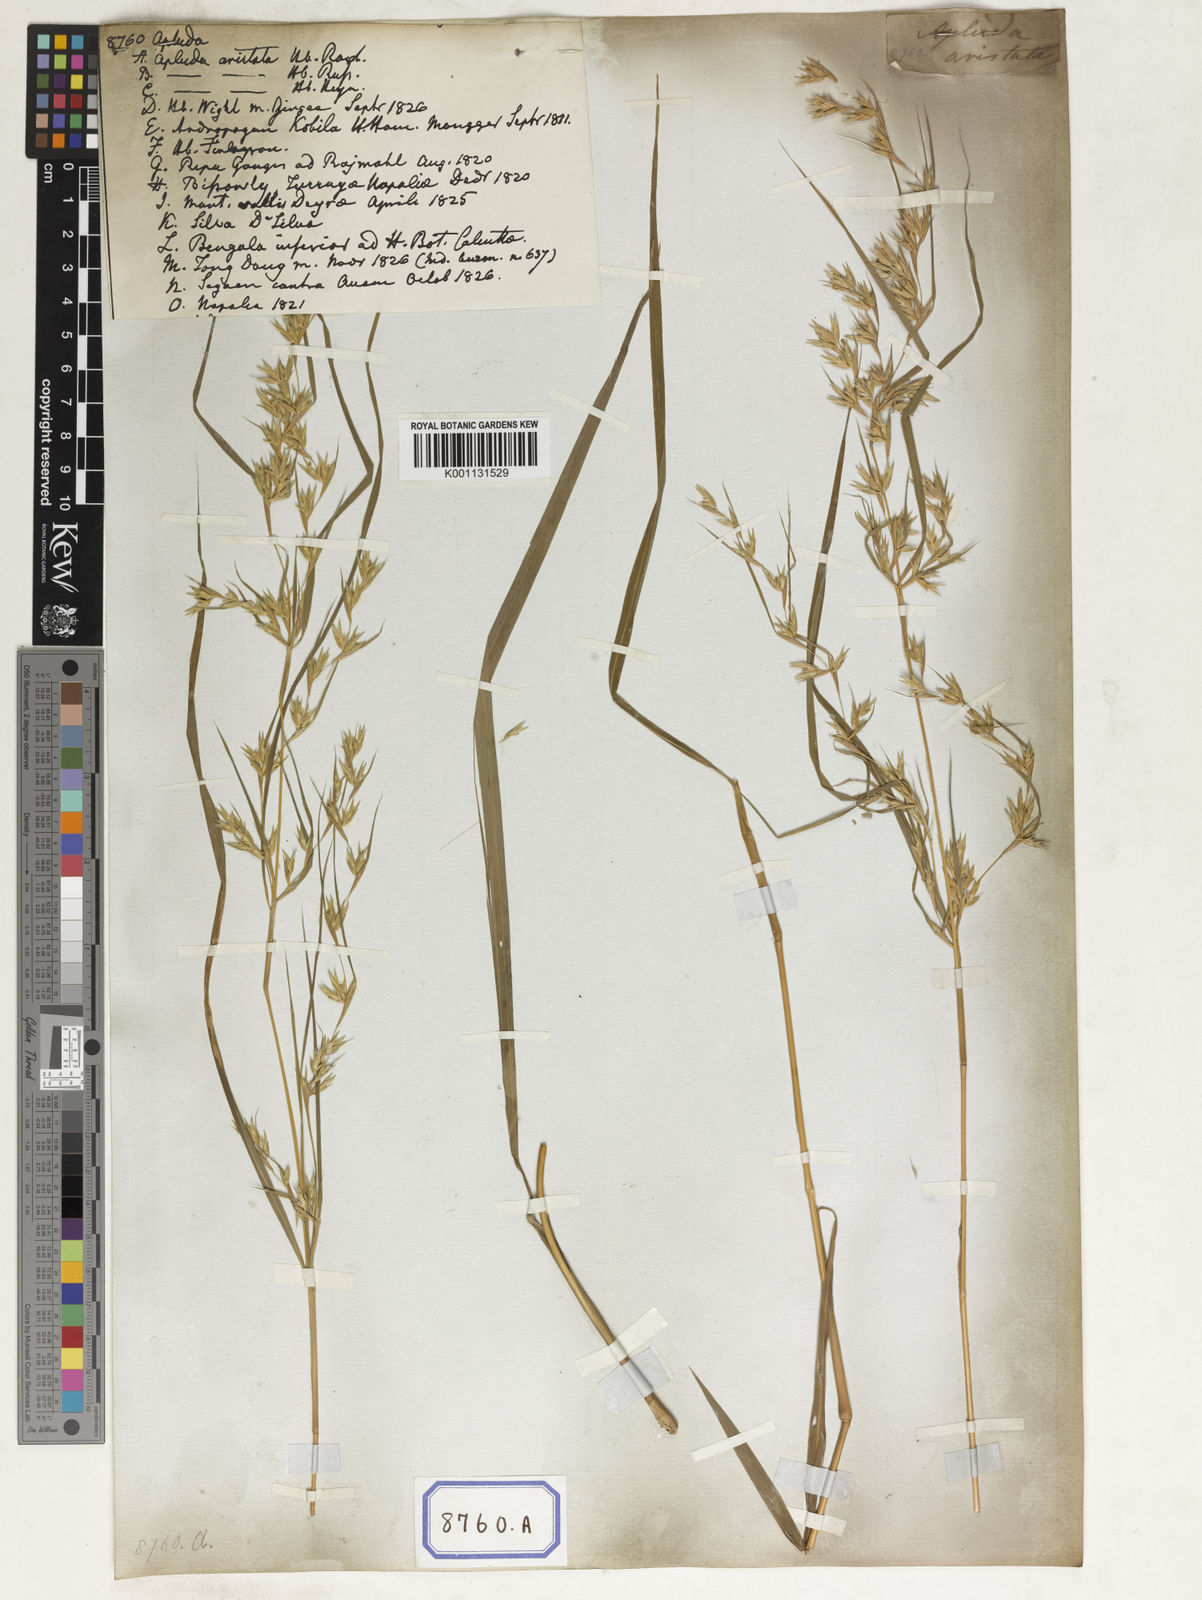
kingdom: Plantae
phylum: Tracheophyta
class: Liliopsida
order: Poales
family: Poaceae
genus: Apluda
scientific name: Apluda
